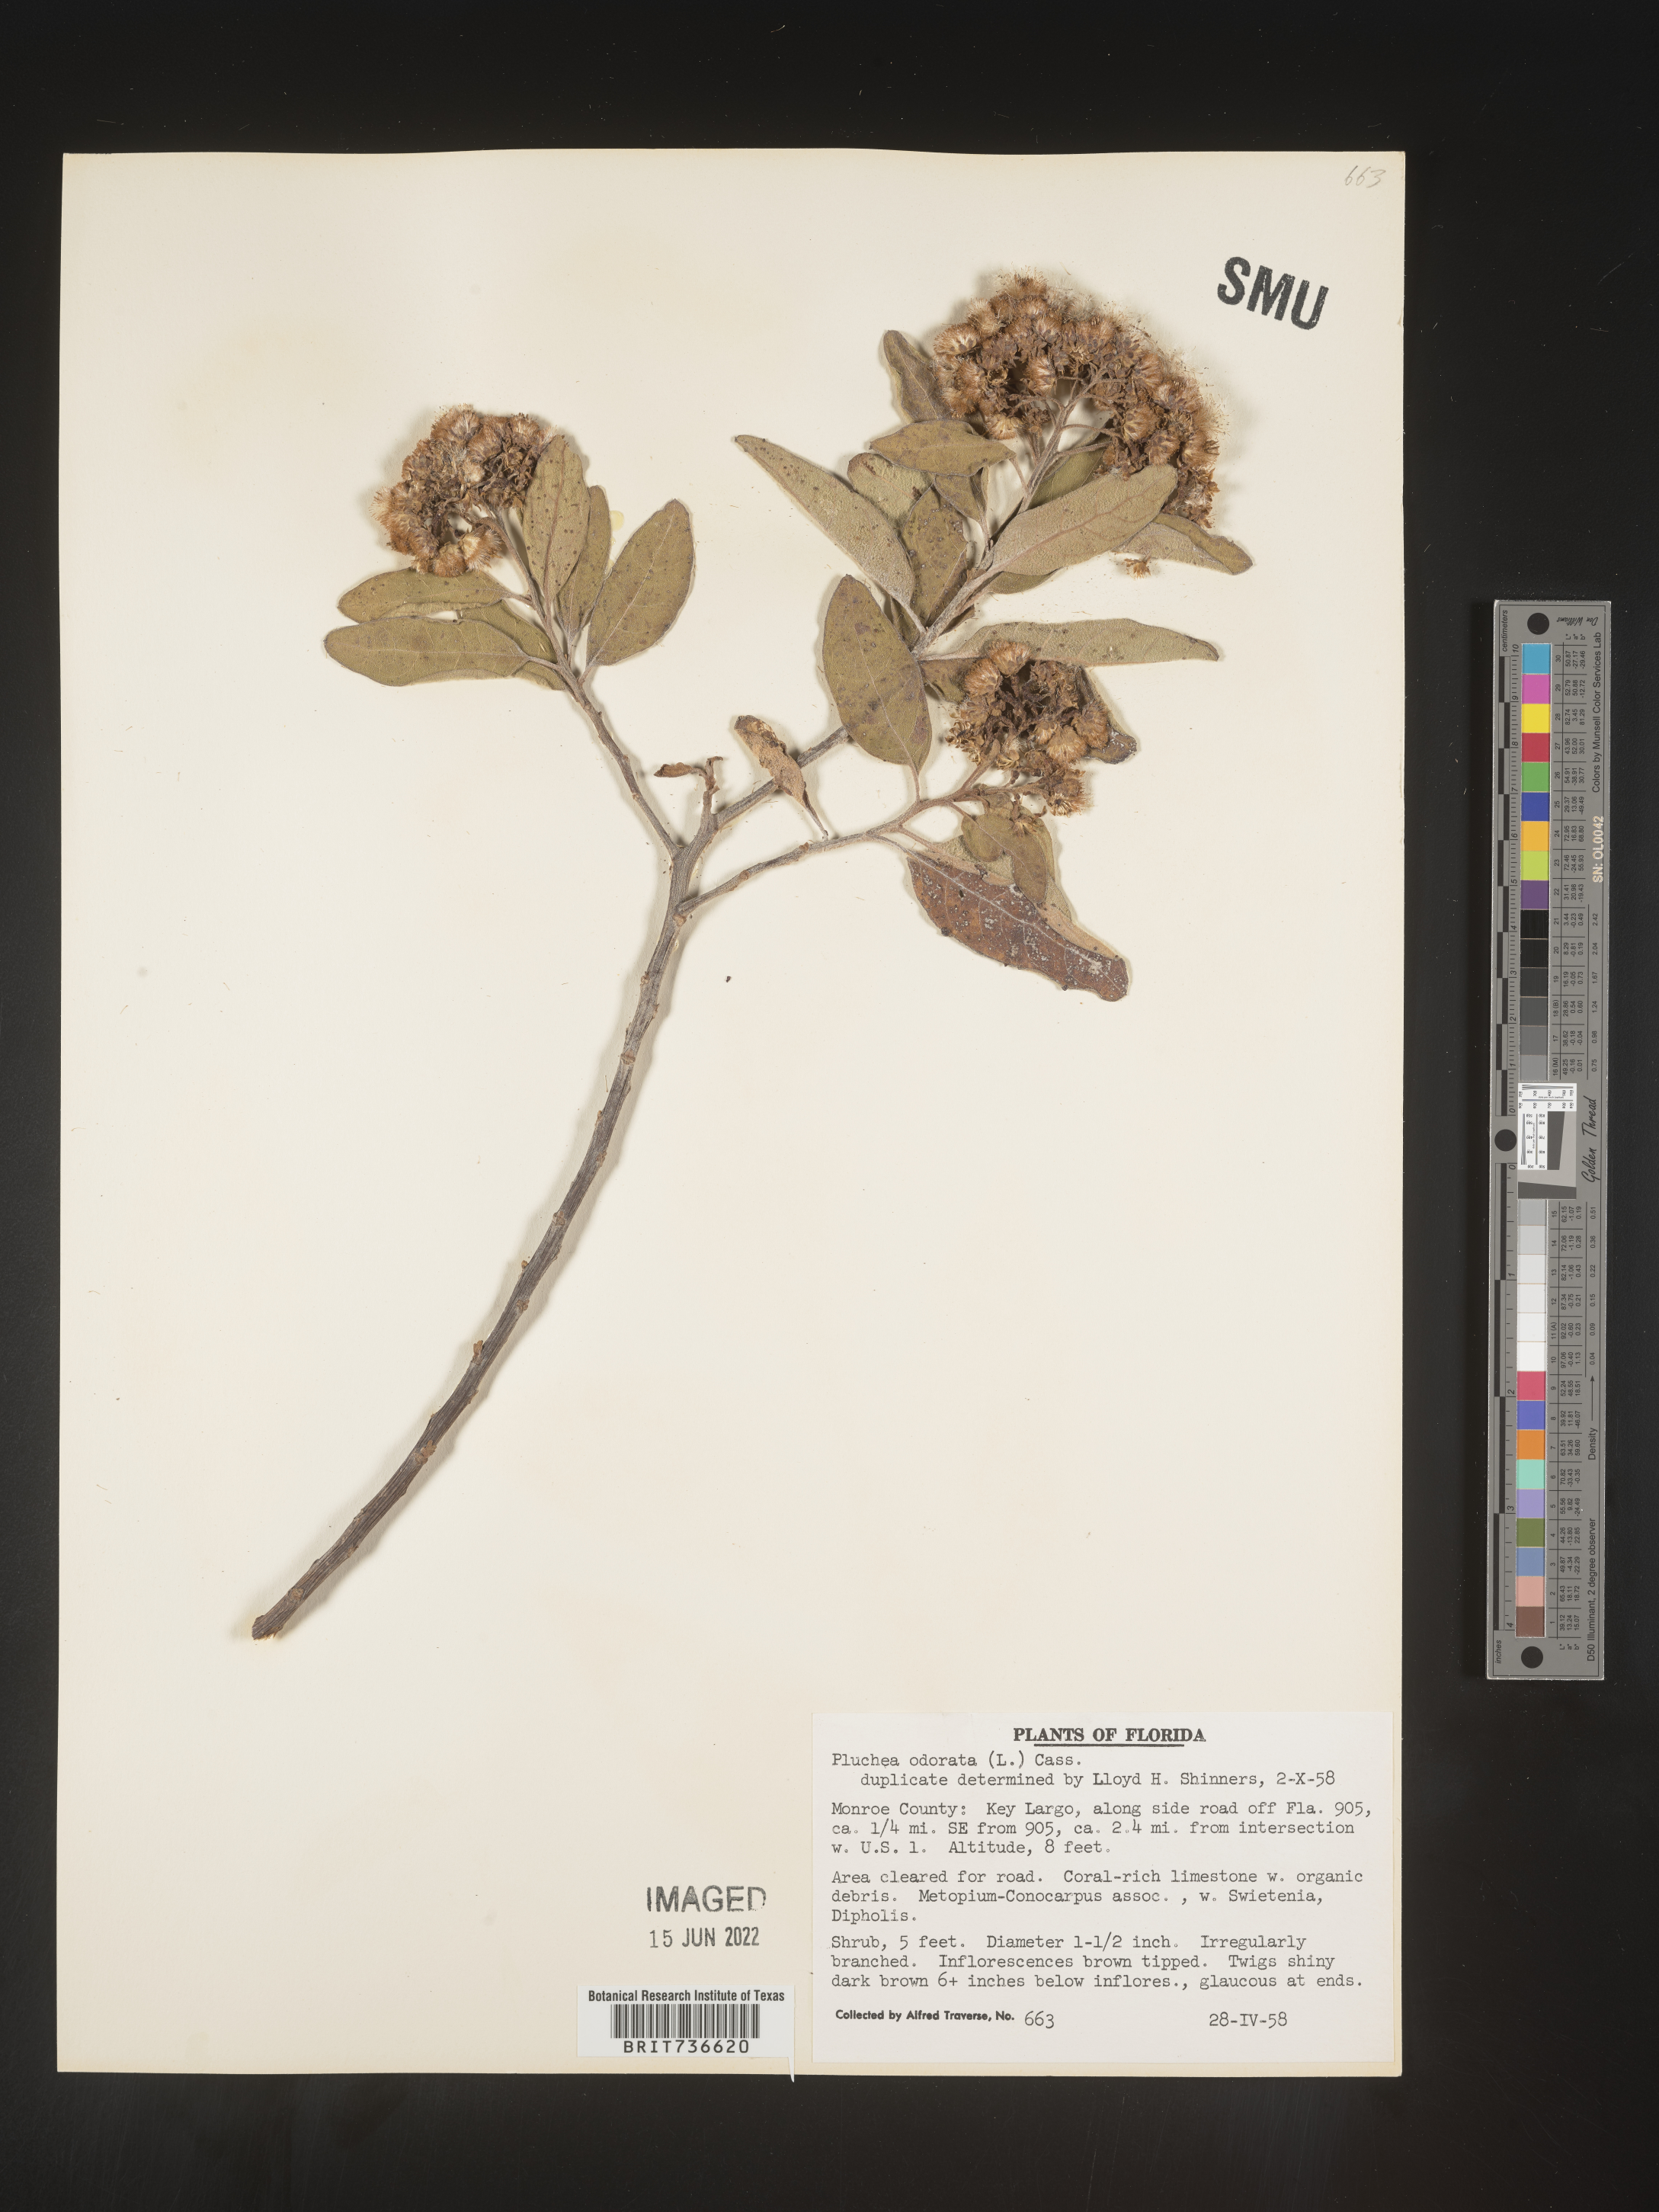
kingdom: Plantae
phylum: Tracheophyta
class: Magnoliopsida
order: Asterales
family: Asteraceae
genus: Pluchea
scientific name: Pluchea carolinensis
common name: Marsh fleabane
